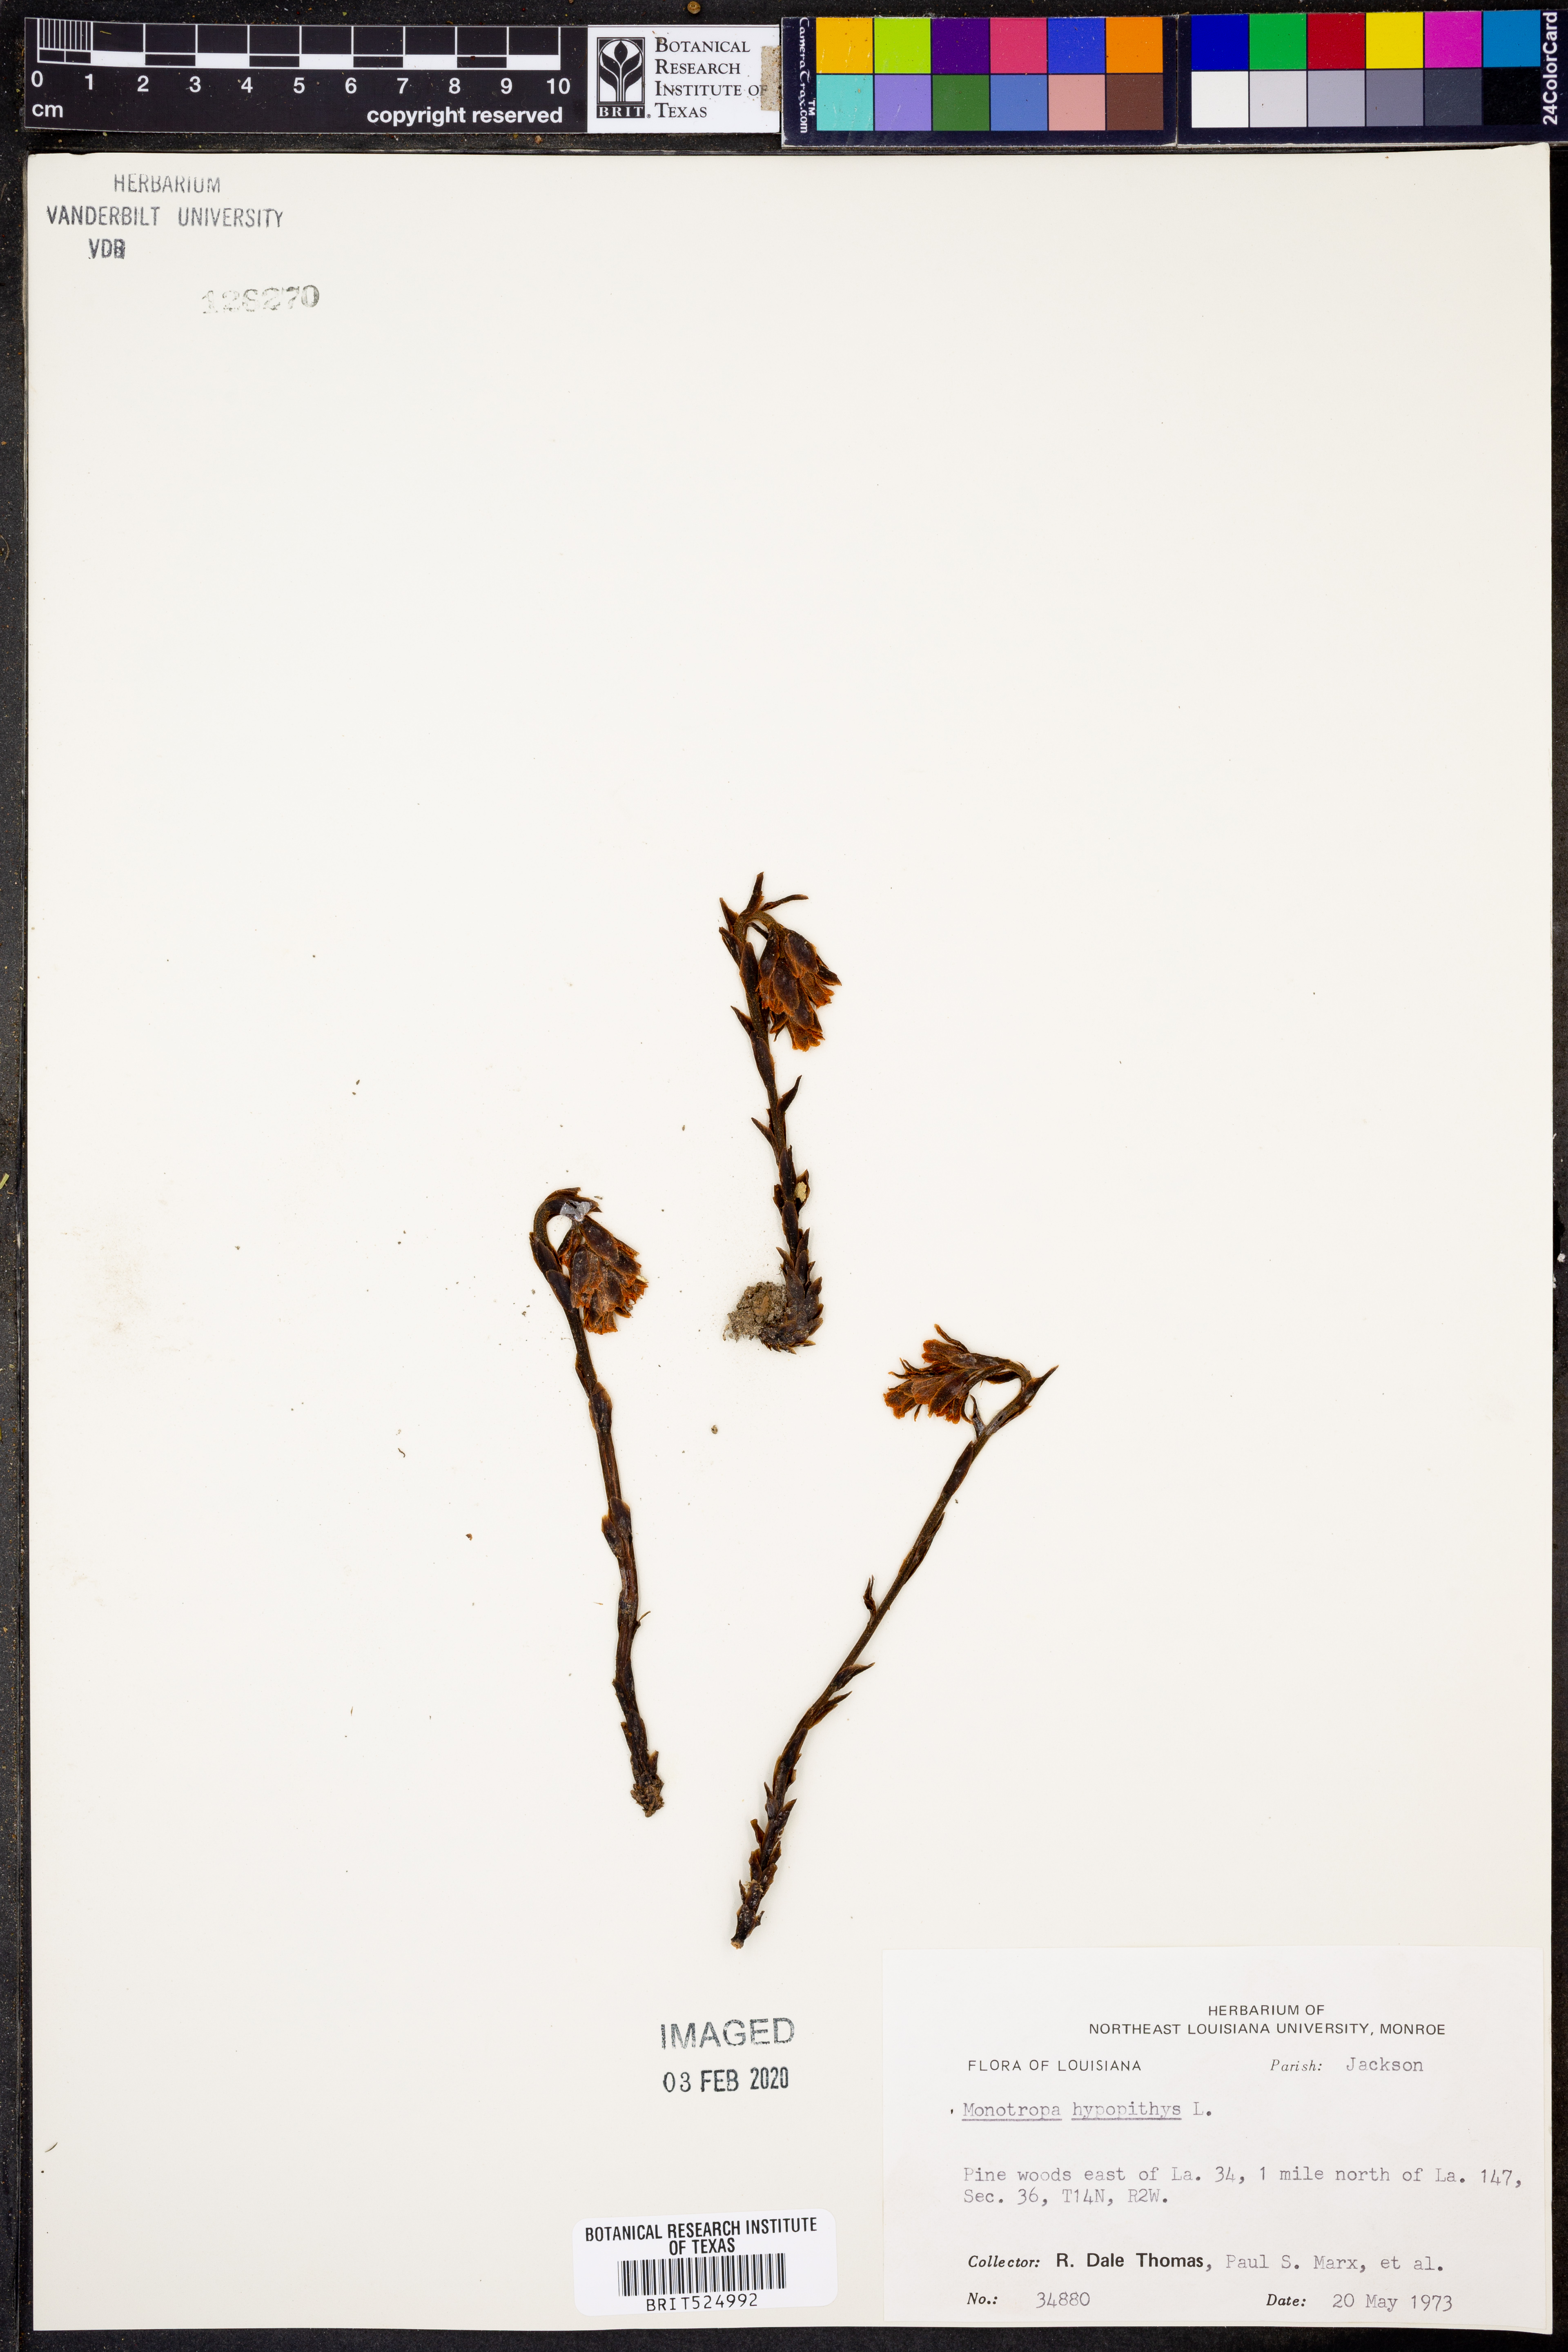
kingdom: Plantae
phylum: Tracheophyta
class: Magnoliopsida
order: Ericales
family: Ericaceae
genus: Hypopitys
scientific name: Hypopitys monotropa
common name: Yellow bird's-nest
